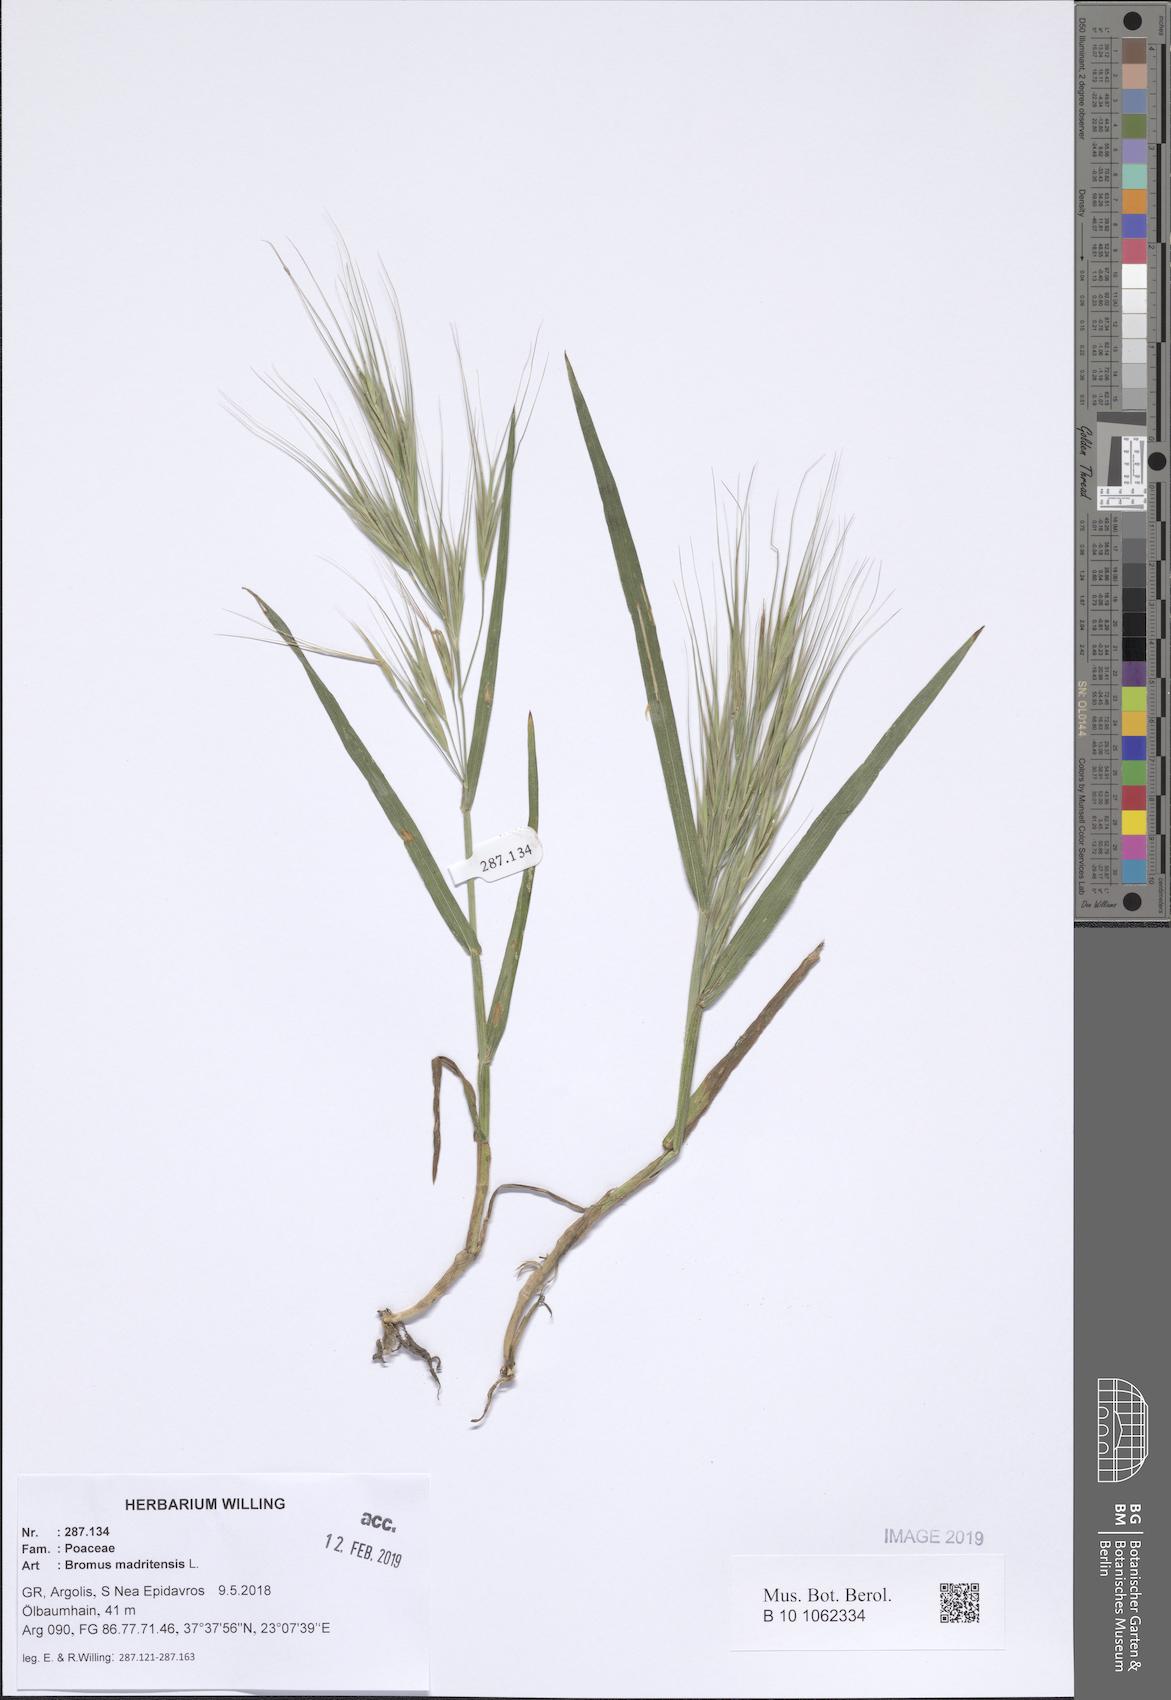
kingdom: Plantae
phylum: Tracheophyta
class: Liliopsida
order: Poales
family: Poaceae
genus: Bromus
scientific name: Bromus madritensis
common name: Compact brome
